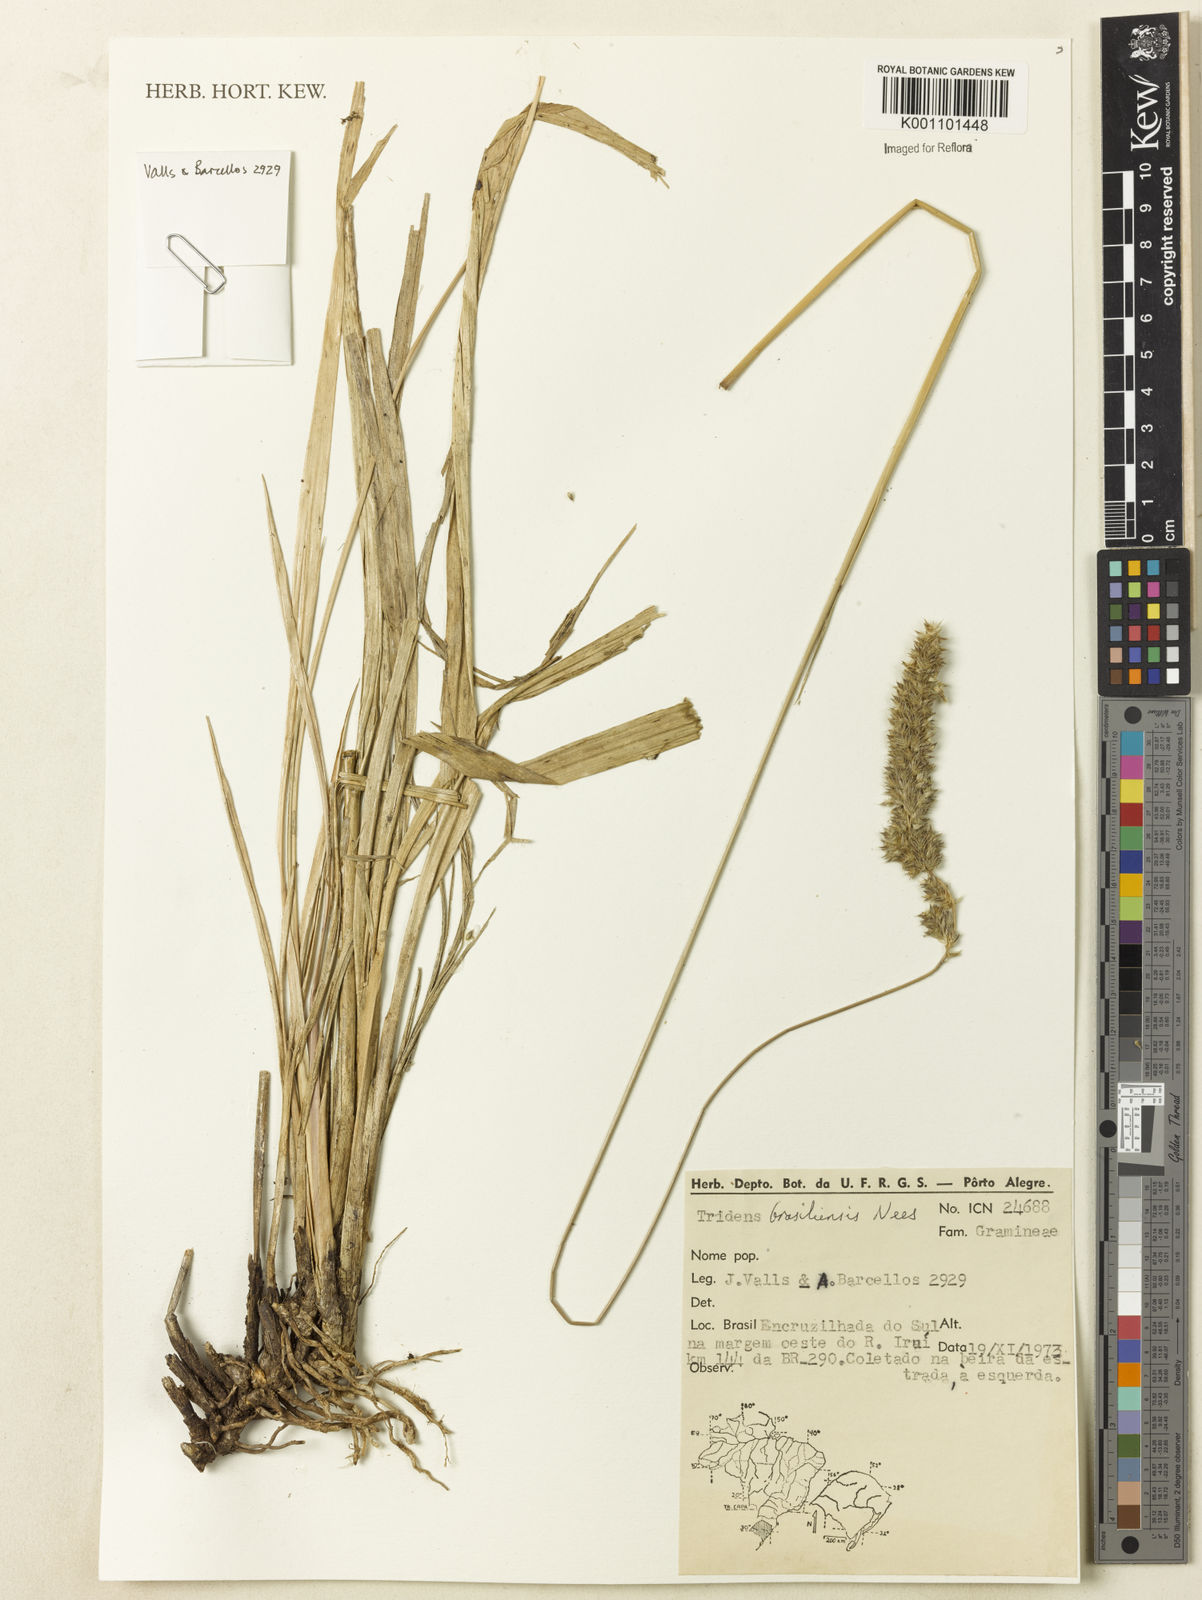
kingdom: Plantae
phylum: Tracheophyta
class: Liliopsida
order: Poales
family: Poaceae
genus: Tridens
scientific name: Tridens brasiliensis
